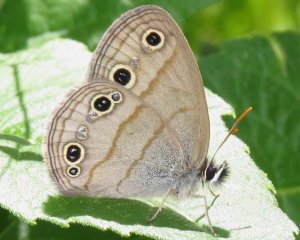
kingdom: Animalia
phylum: Arthropoda
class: Insecta
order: Lepidoptera
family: Nymphalidae
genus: Euptychia
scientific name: Euptychia cymela
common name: Little Wood Satyr
